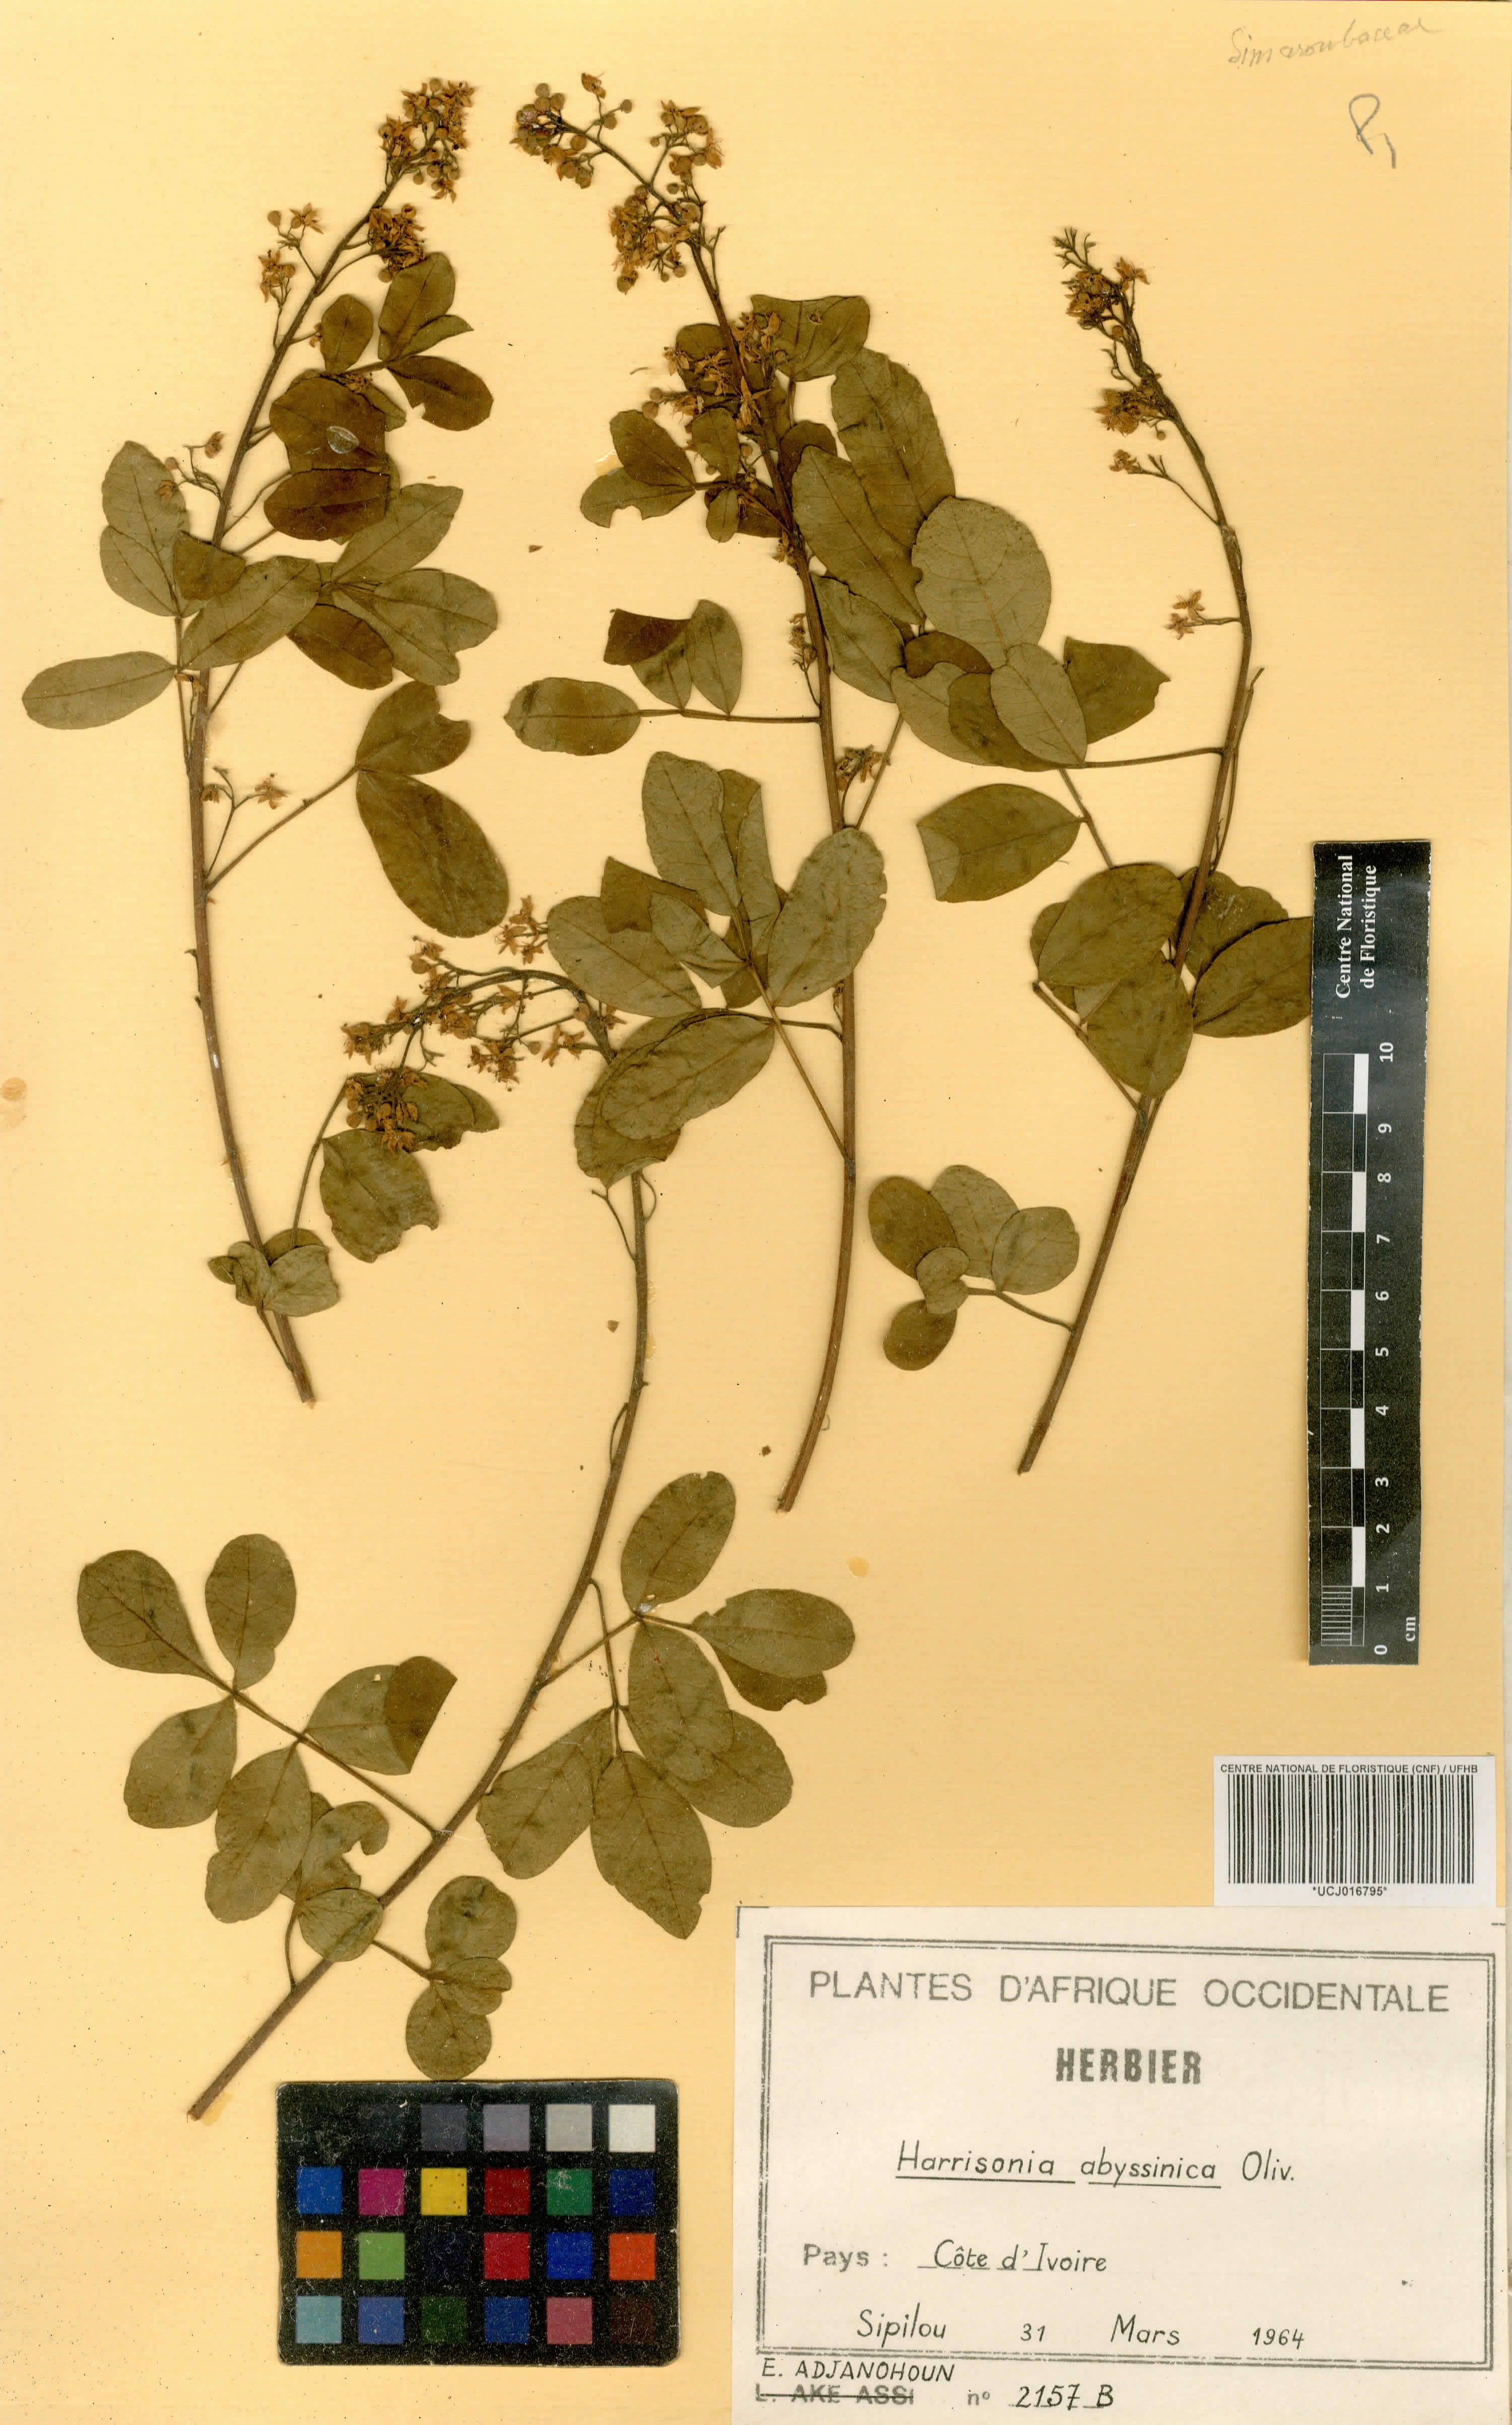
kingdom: Plantae
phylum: Tracheophyta
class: Magnoliopsida
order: Sapindales
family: Rutaceae
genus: Harrisonia
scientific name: Harrisonia abyssinica
